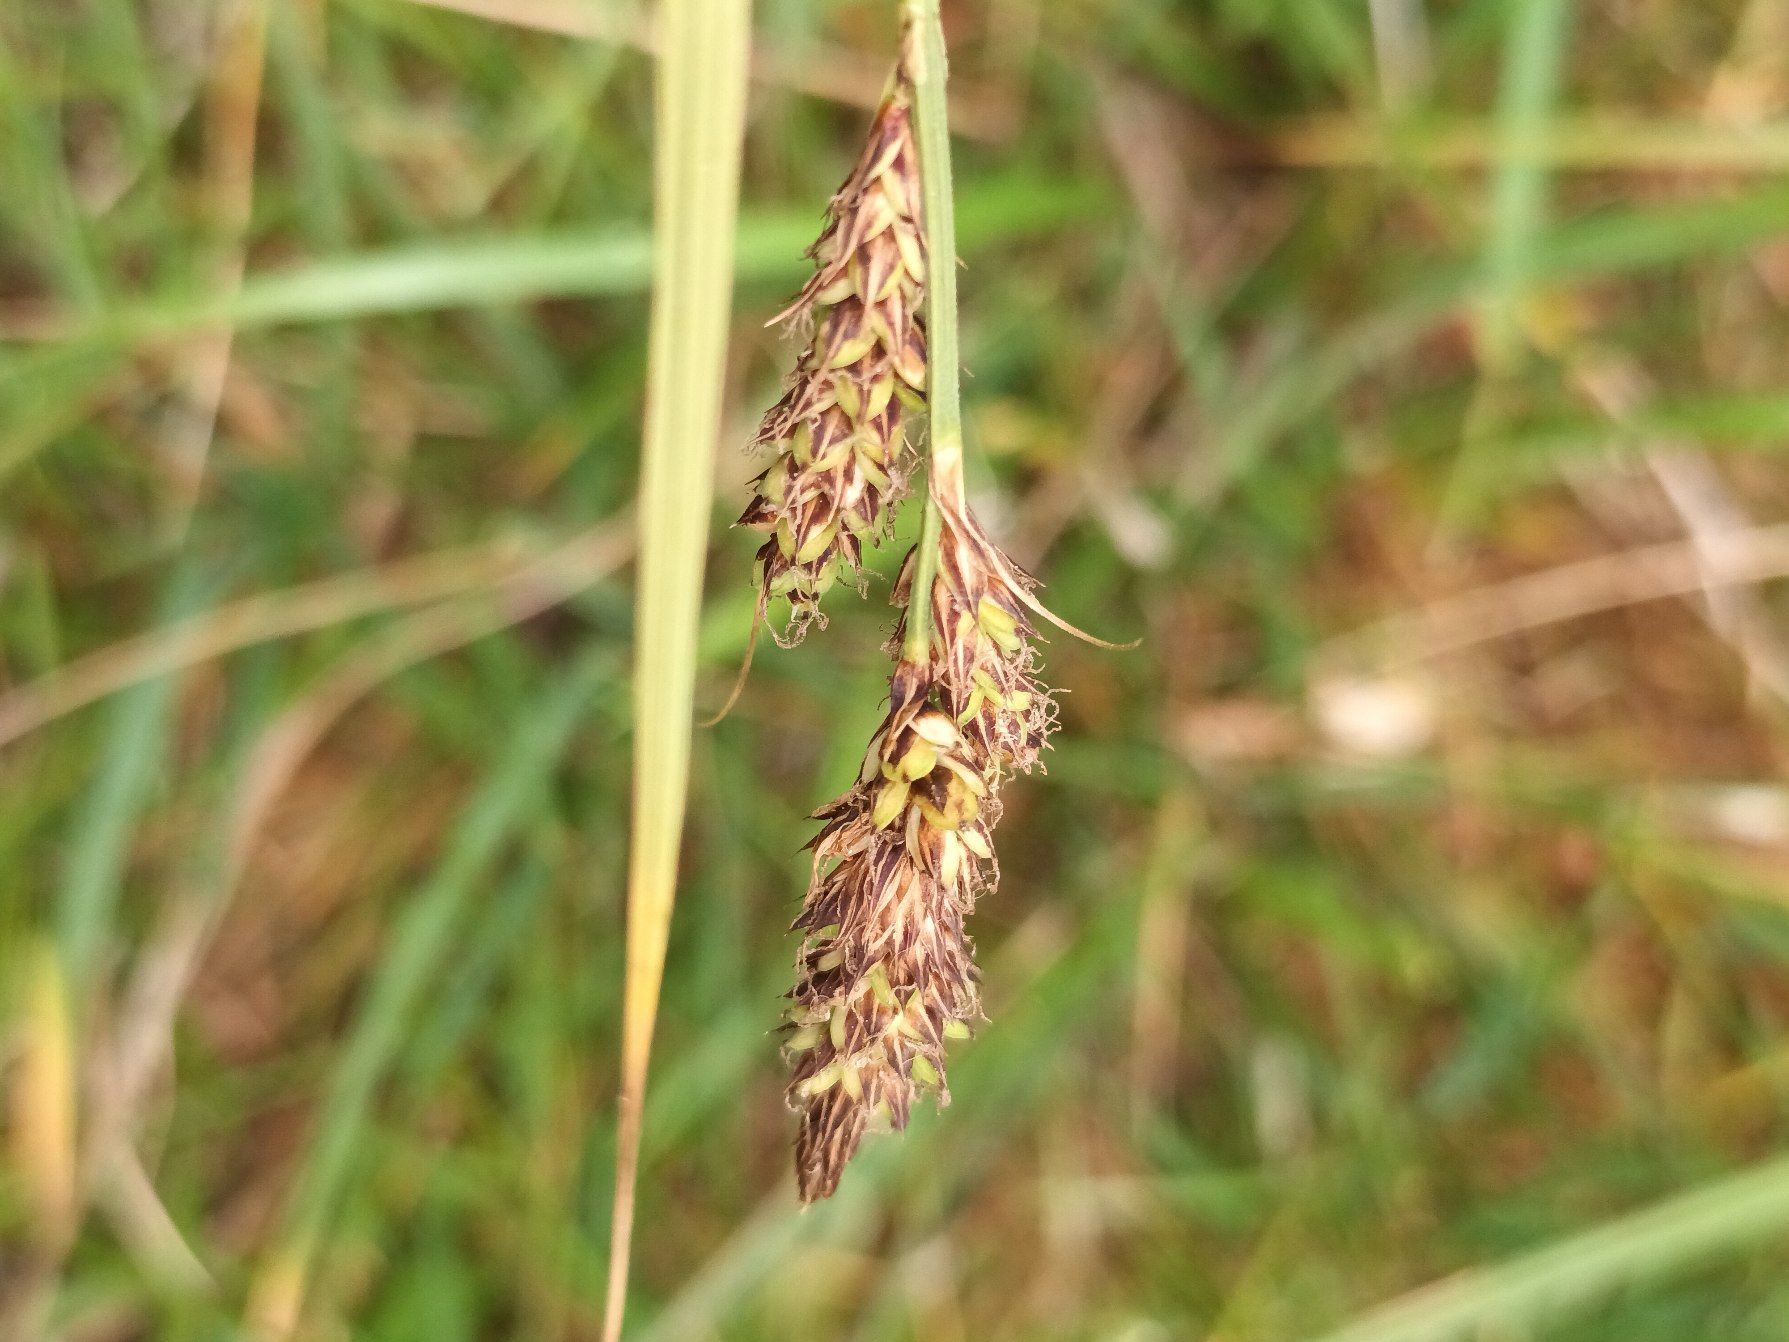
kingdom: Plantae
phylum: Tracheophyta
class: Liliopsida
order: Poales
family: Cyperaceae
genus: Carex
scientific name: Carex hartmaniorum
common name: Hartmans star
